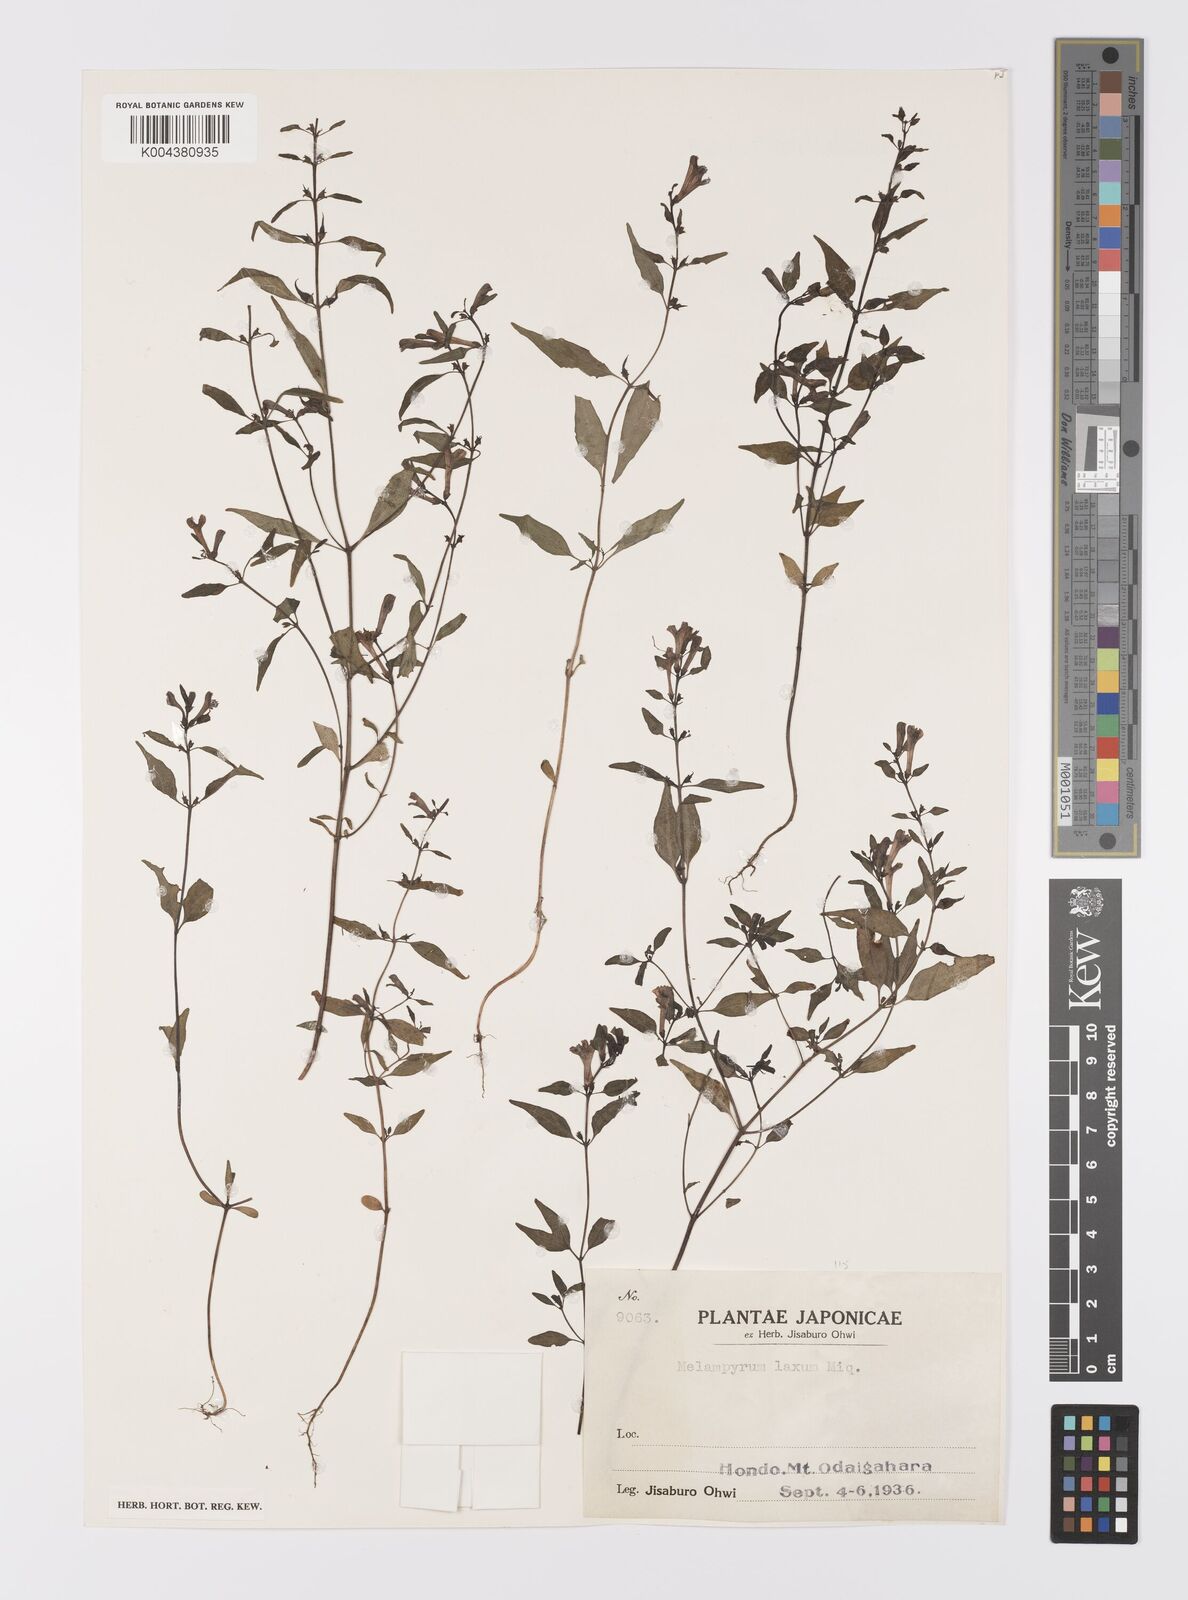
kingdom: Plantae
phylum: Tracheophyta
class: Magnoliopsida
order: Lamiales
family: Orobanchaceae
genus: Melampyrum
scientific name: Melampyrum laxum
